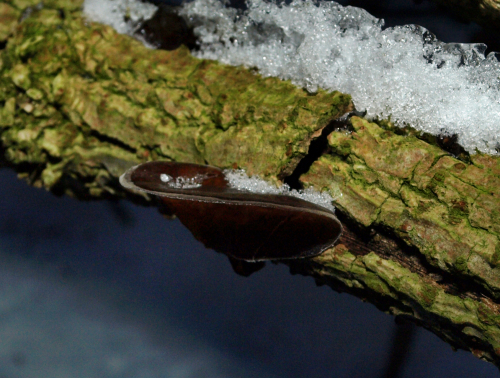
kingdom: Fungi
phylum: Basidiomycota
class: Agaricomycetes
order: Auriculariales
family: Auriculariaceae
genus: Auricularia
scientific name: Auricularia auricula-judae
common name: almindelig judasøre
